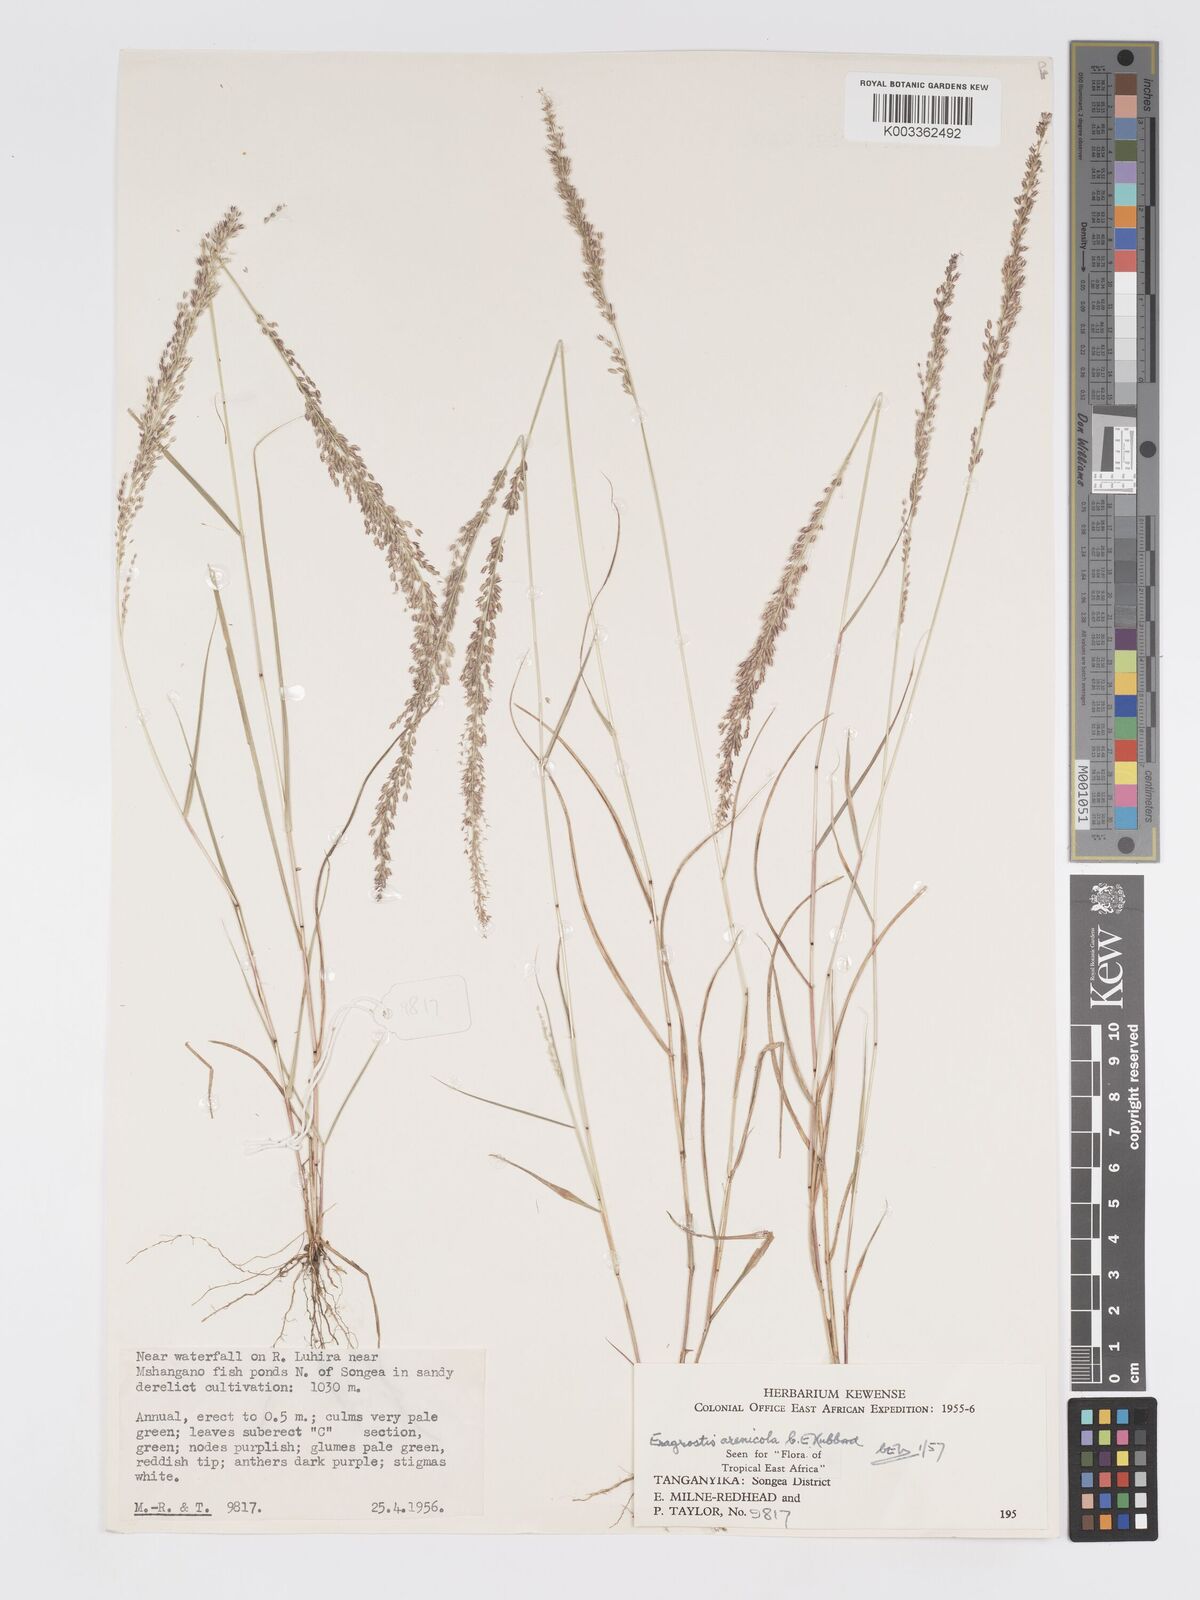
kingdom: Plantae
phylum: Tracheophyta
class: Liliopsida
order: Poales
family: Poaceae
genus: Eragrostis
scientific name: Eragrostis arenicola
